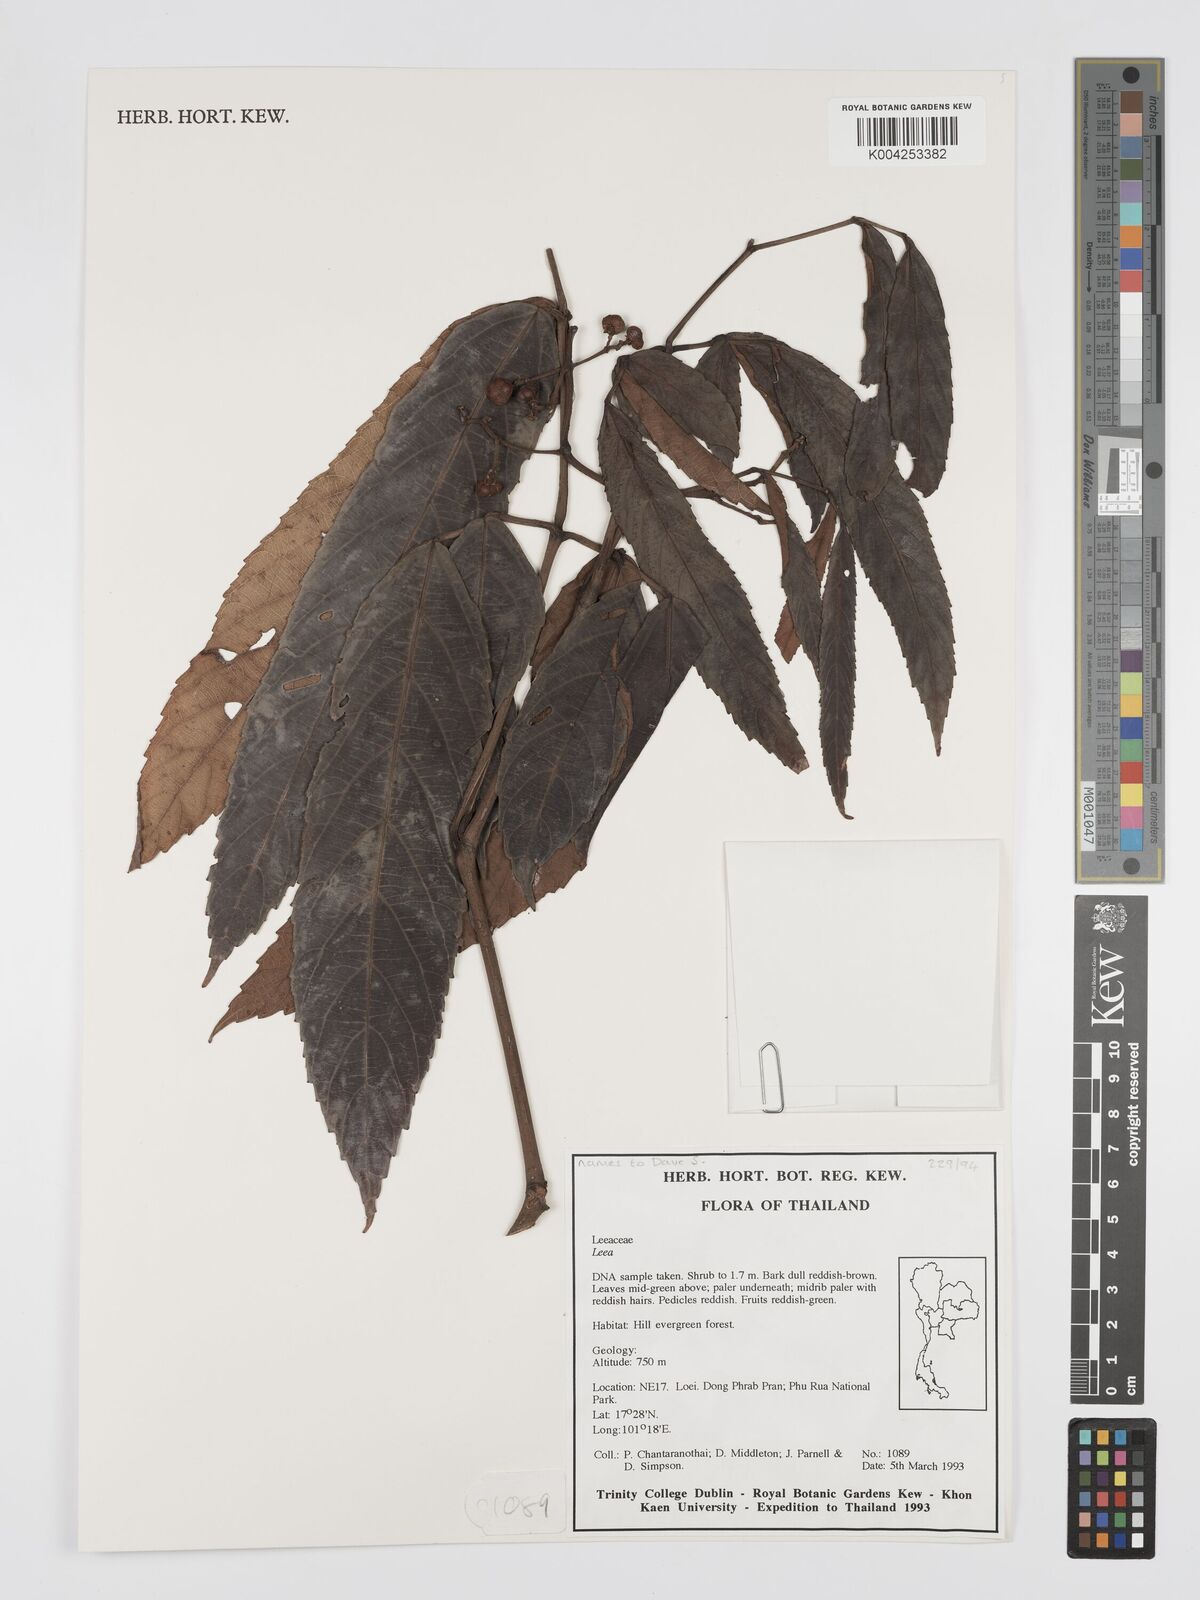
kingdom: Plantae
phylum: Tracheophyta
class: Magnoliopsida
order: Vitales
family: Vitaceae
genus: Leea
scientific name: Leea
